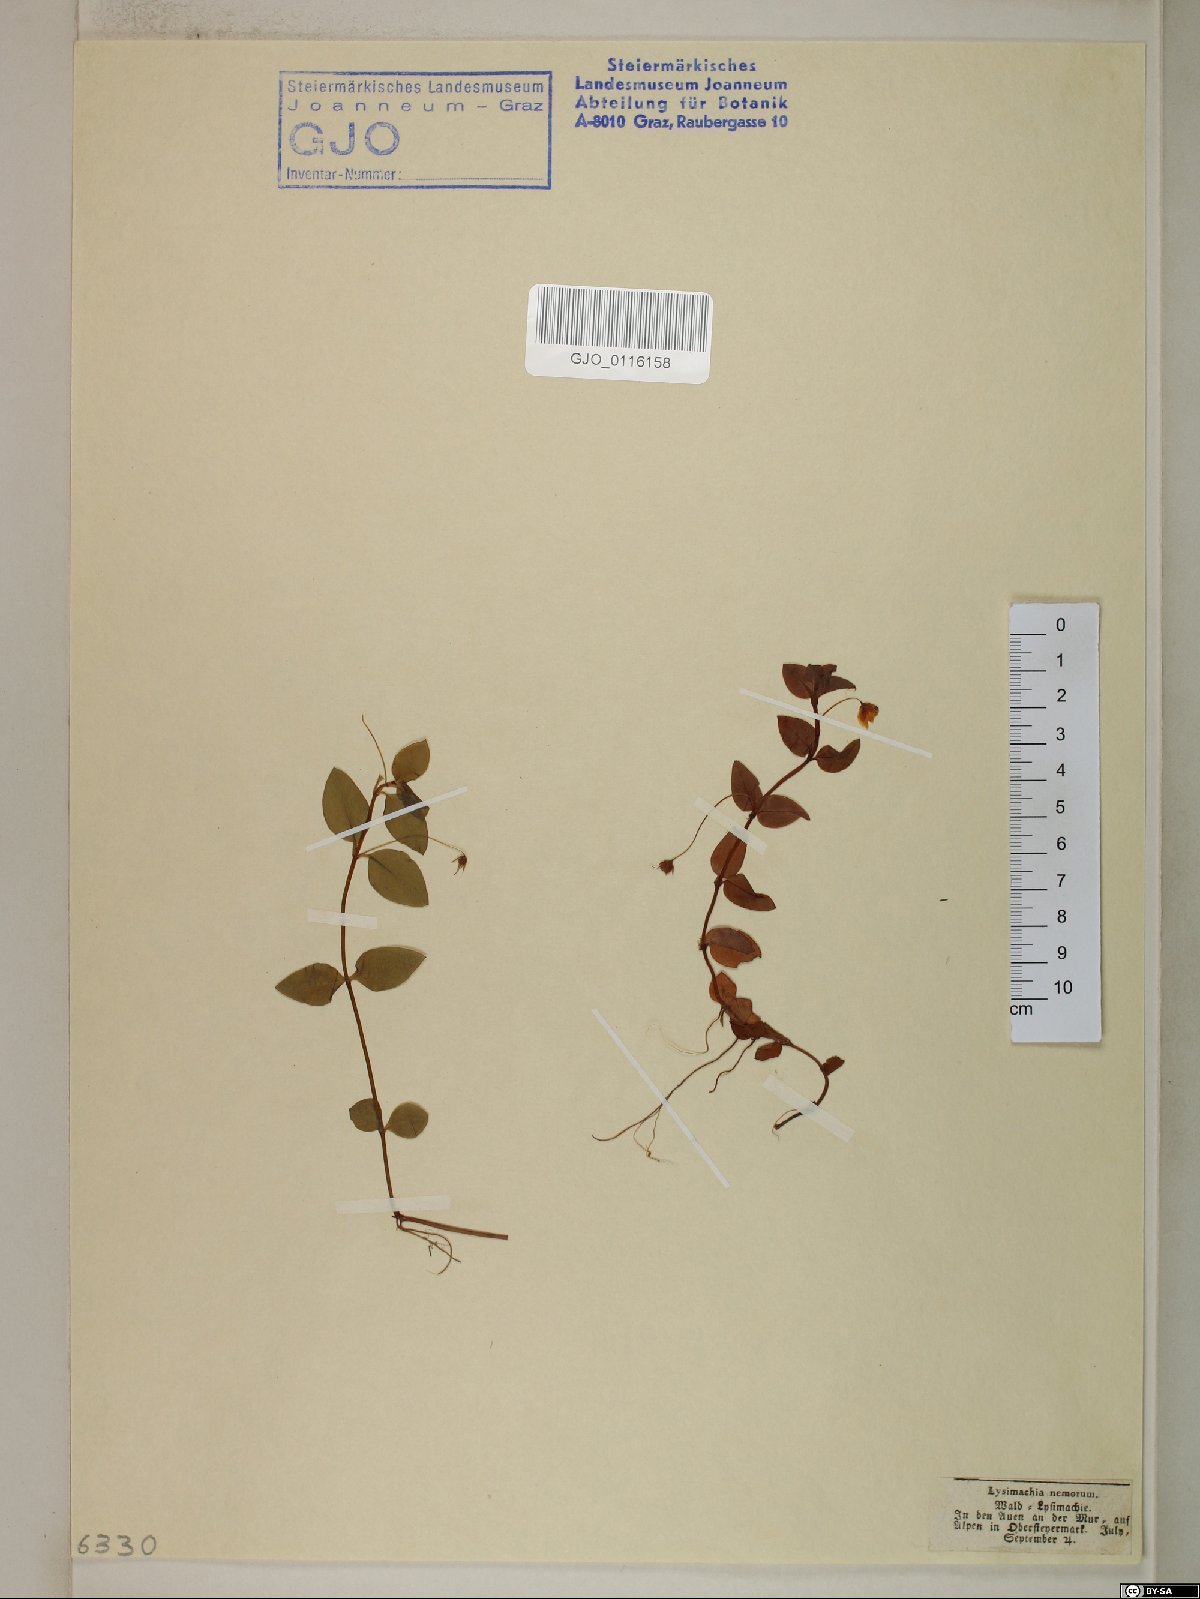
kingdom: Plantae
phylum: Tracheophyta
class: Magnoliopsida
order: Ericales
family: Primulaceae
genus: Lysimachia
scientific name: Lysimachia nemorum
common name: Yellow pimpernel
